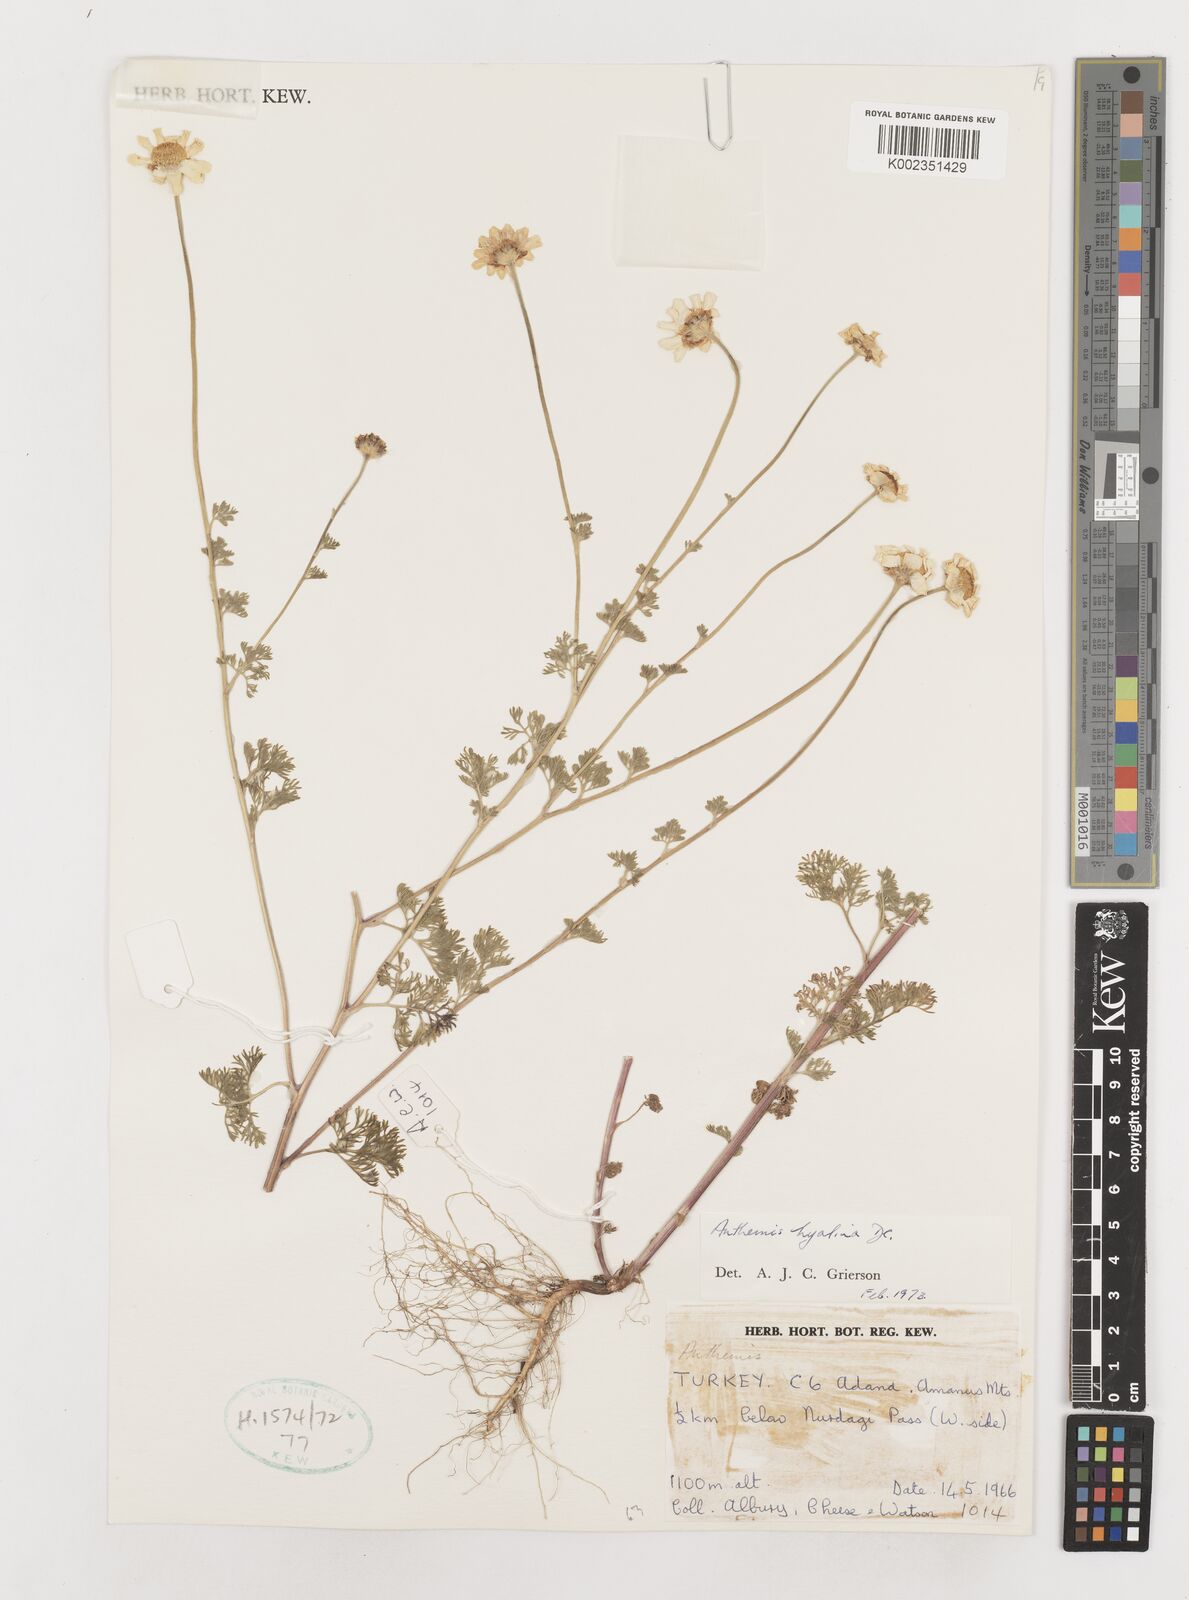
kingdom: Plantae
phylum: Tracheophyta
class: Magnoliopsida
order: Asterales
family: Asteraceae
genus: Anthemis
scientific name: Anthemis hyalina
